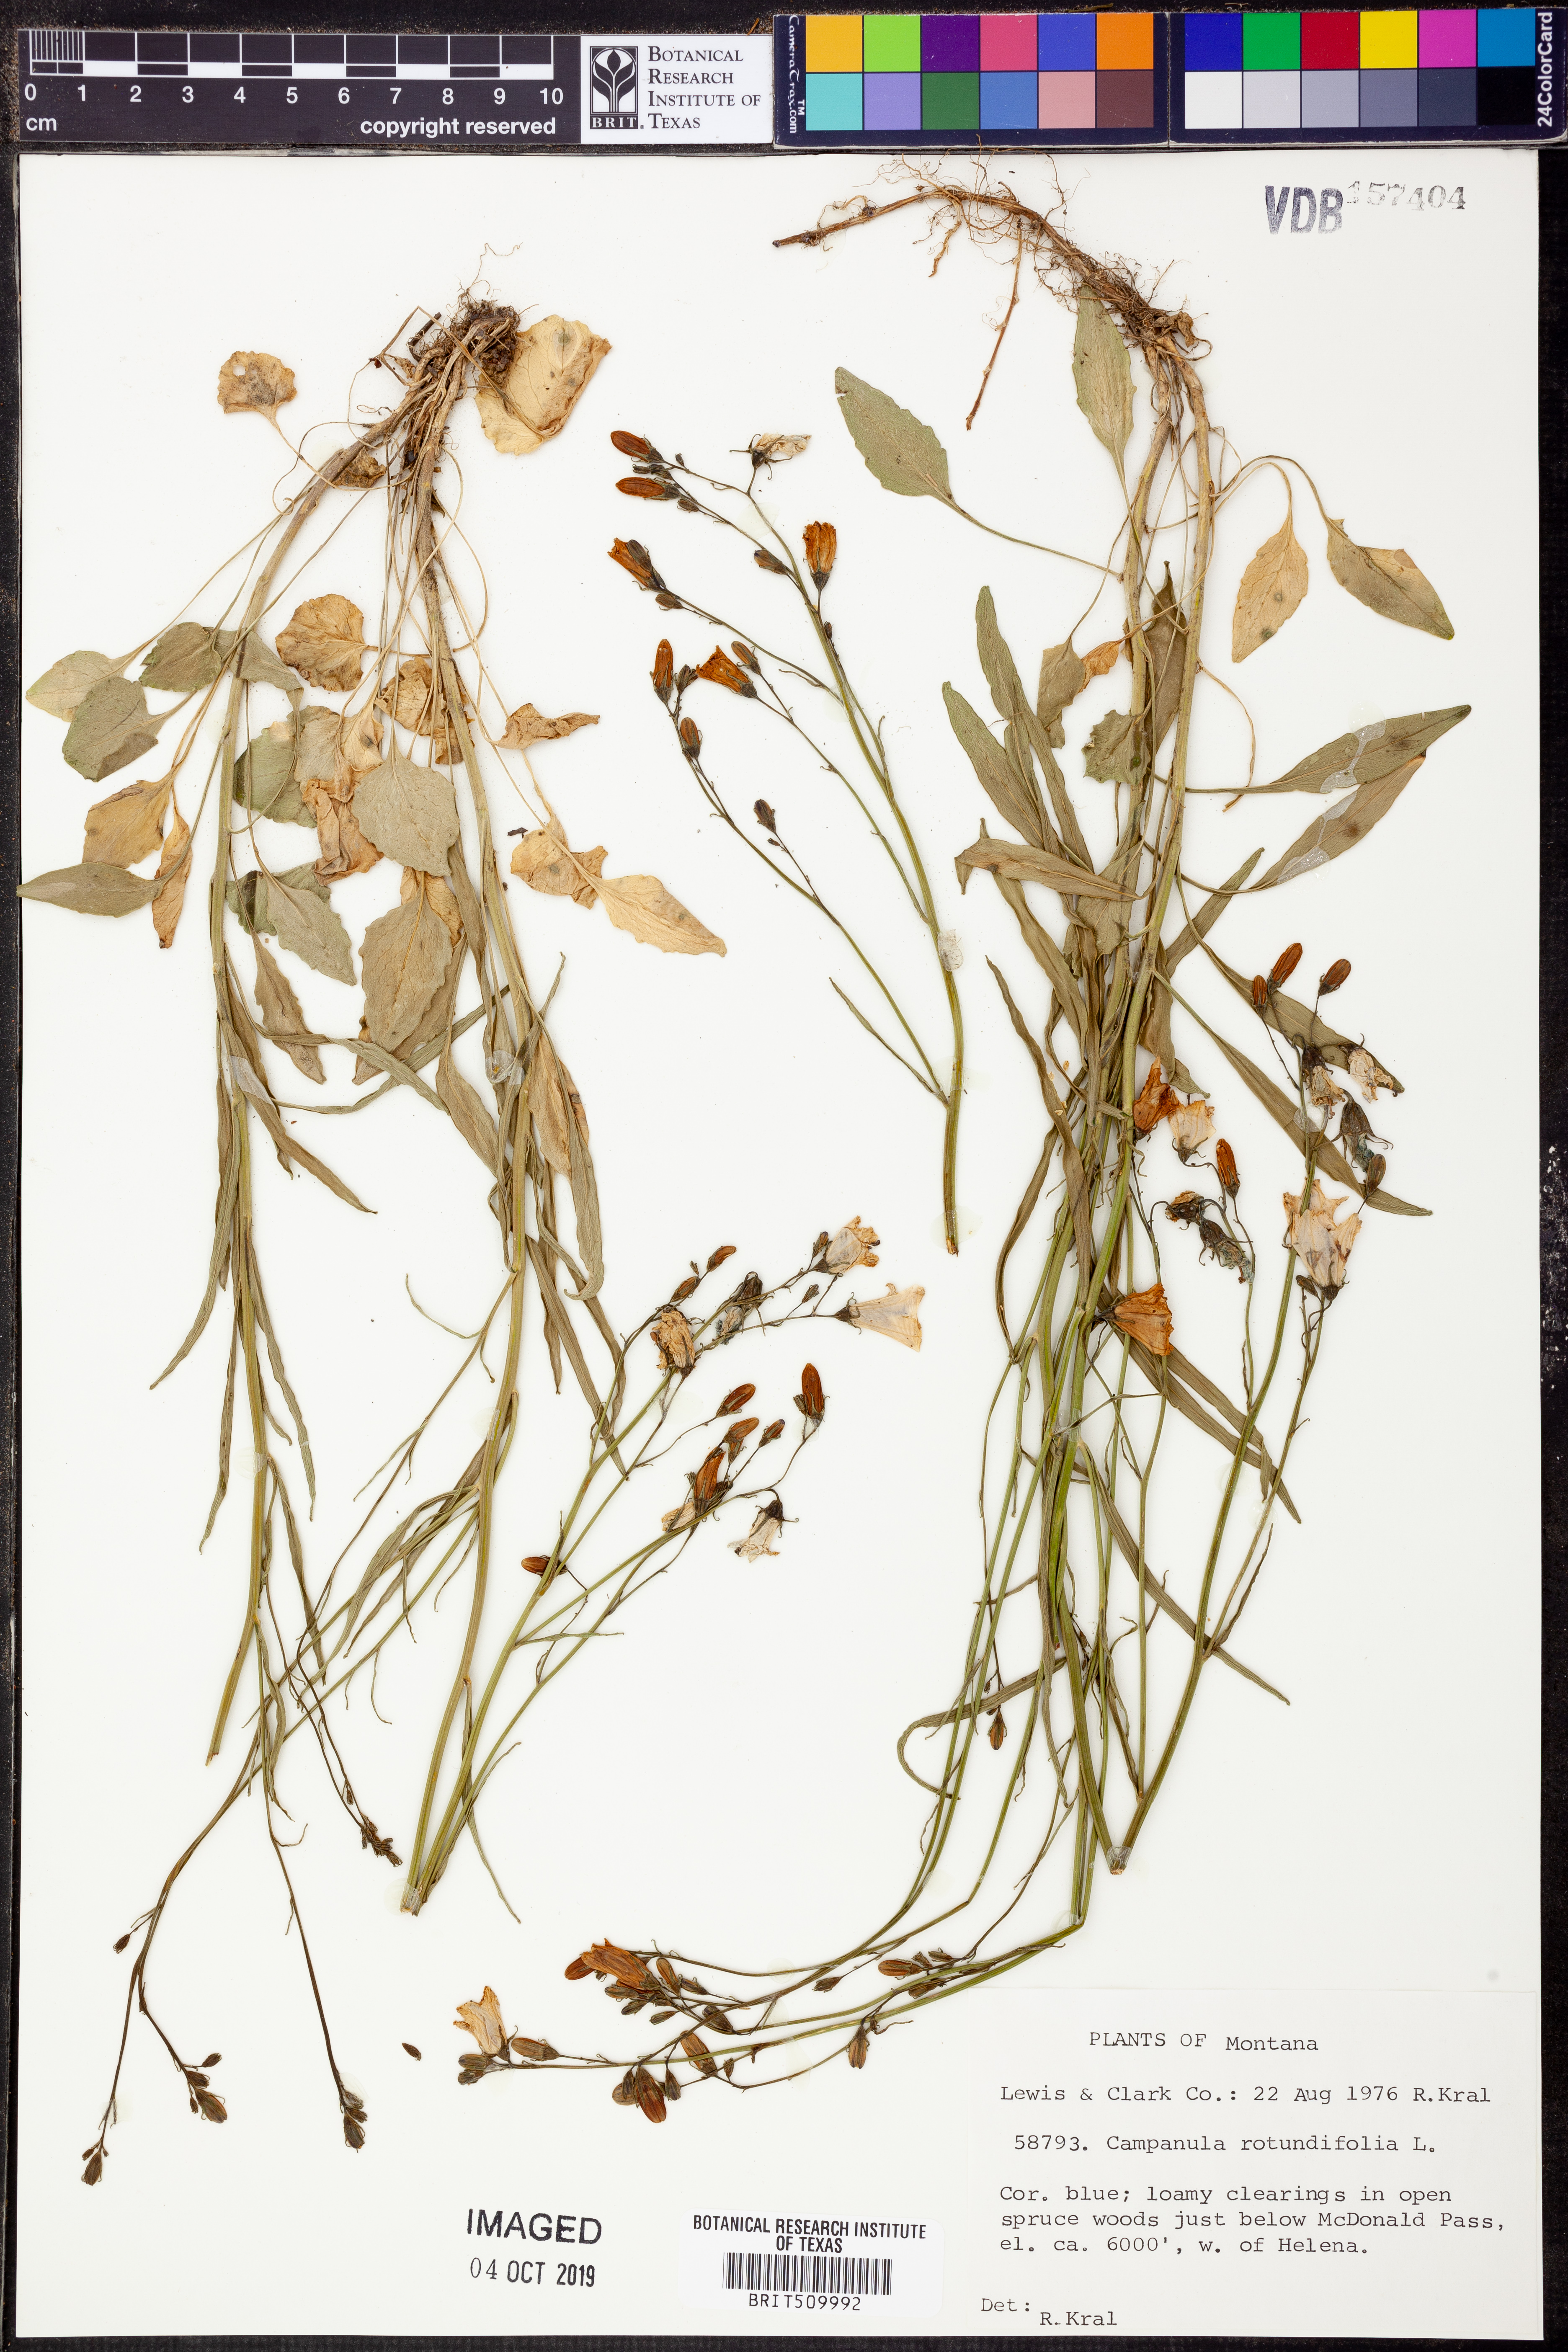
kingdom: Plantae
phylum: Tracheophyta
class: Magnoliopsida
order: Asterales
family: Campanulaceae
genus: Campanula
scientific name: Campanula rotundifolia
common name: Harebell
